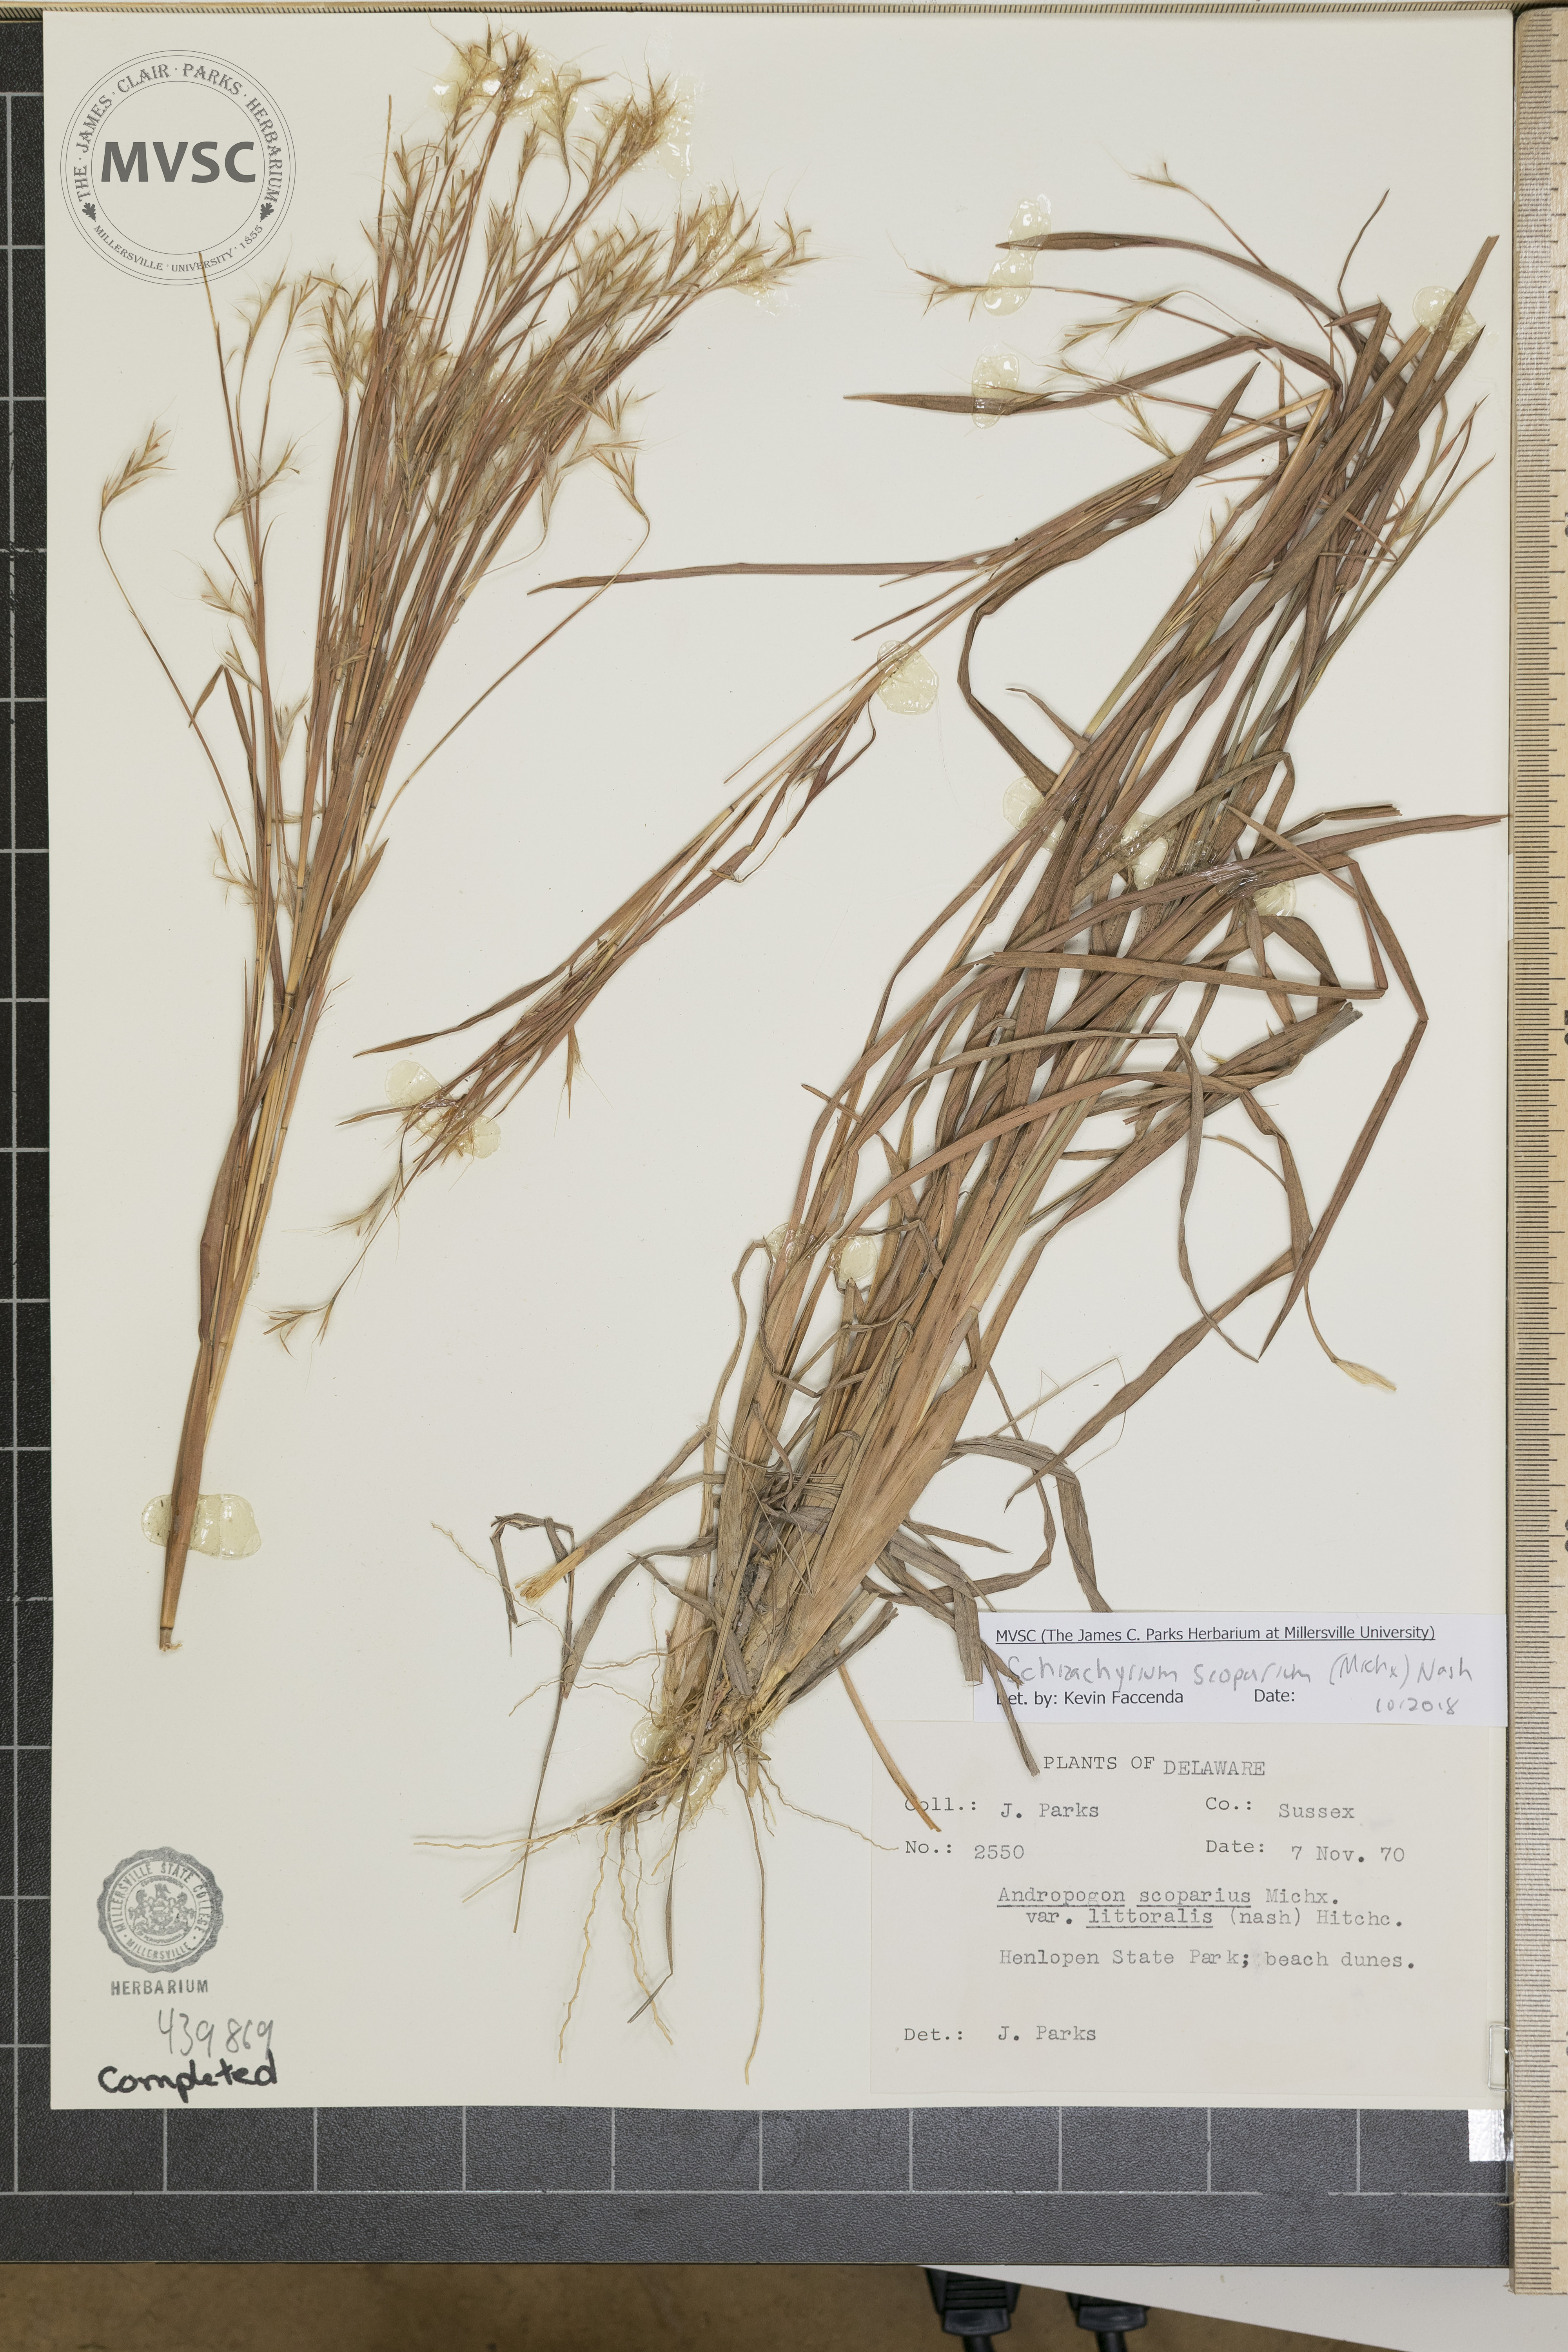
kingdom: Plantae
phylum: Tracheophyta
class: Liliopsida
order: Poales
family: Poaceae
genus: Schizachyrium
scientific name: Schizachyrium scoparium
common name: Little bluestem
